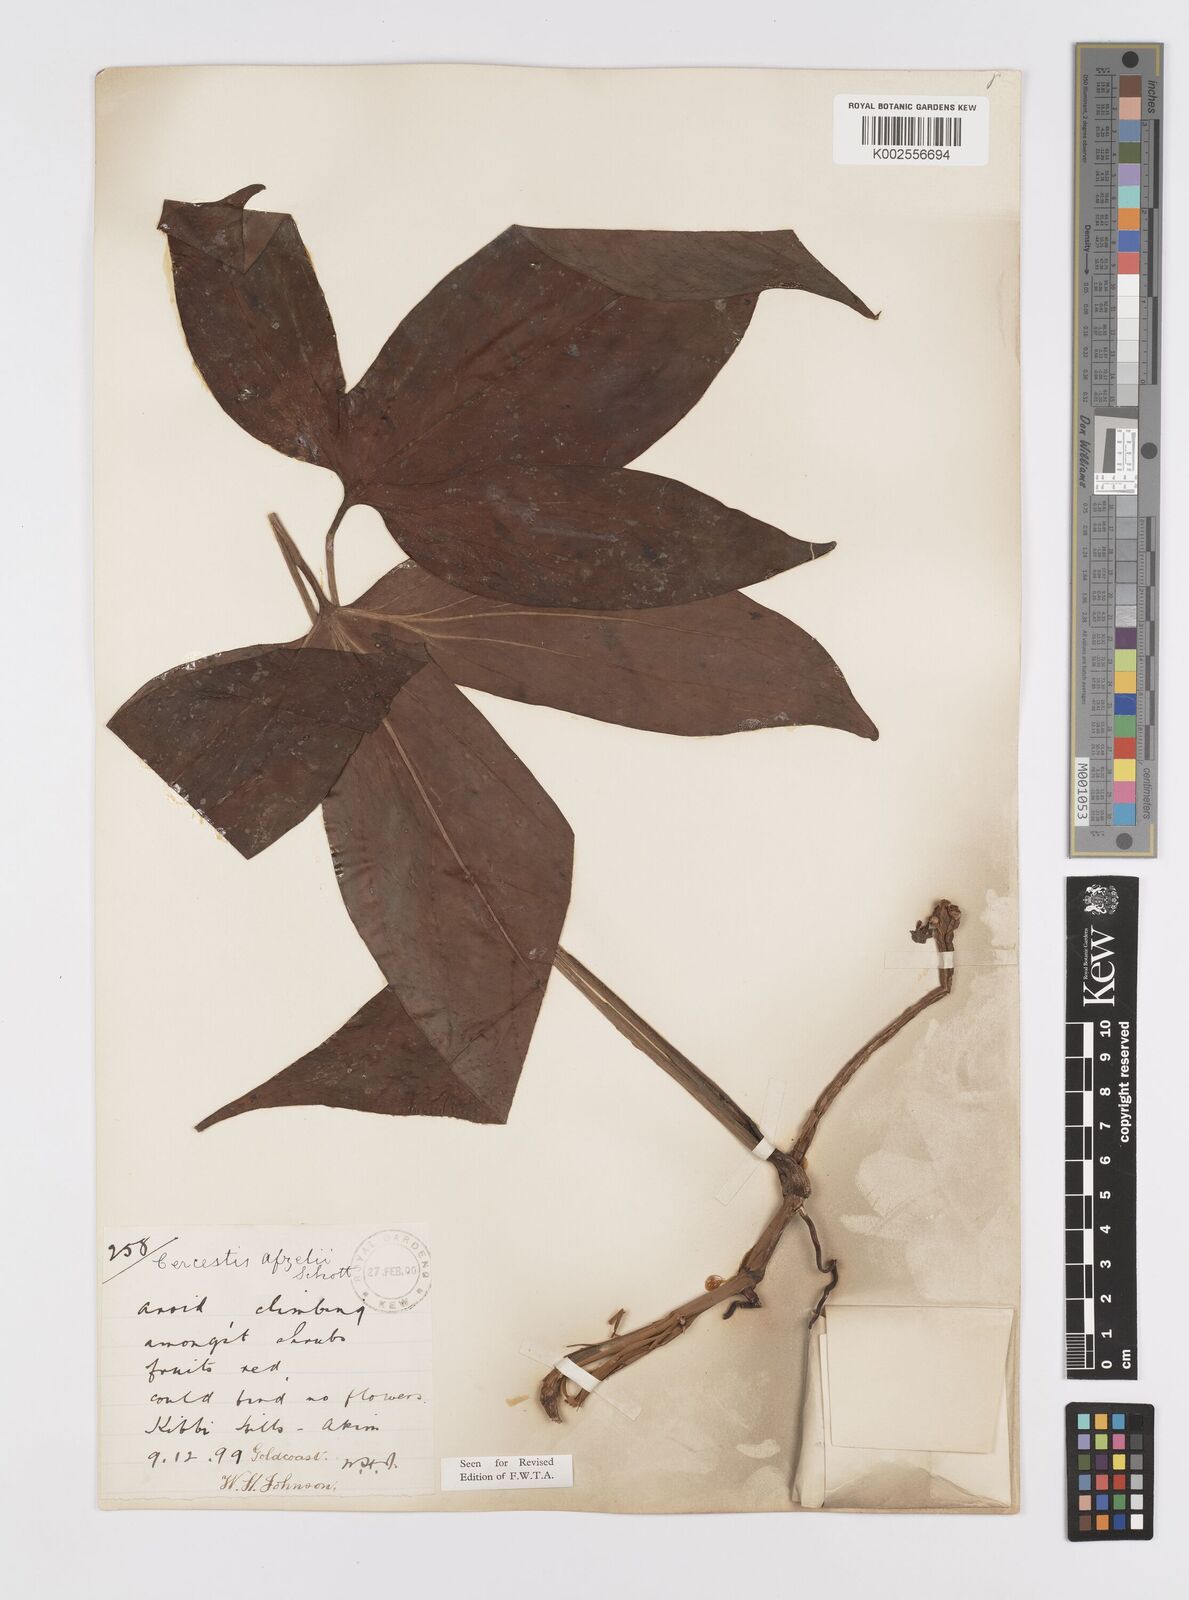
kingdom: Plantae
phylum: Tracheophyta
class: Liliopsida
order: Alismatales
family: Araceae
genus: Cercestis
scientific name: Cercestis afzelii
